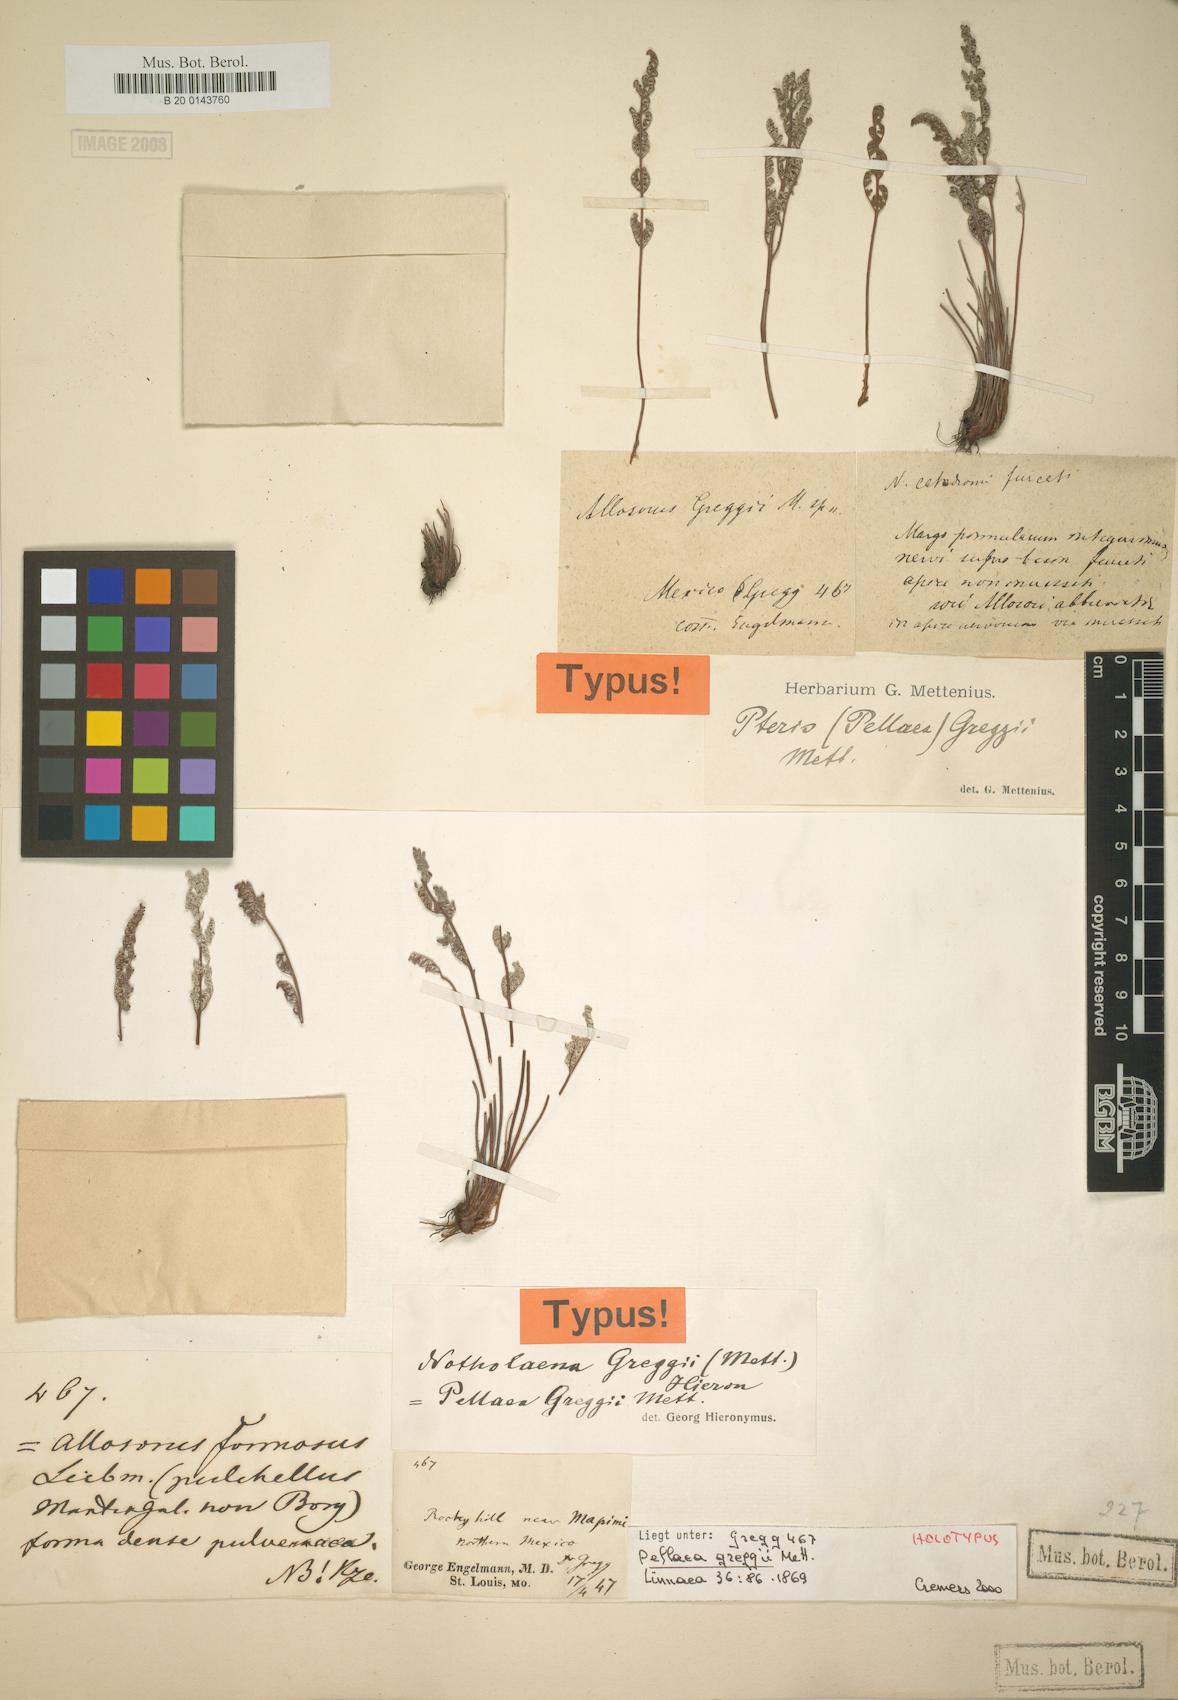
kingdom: Plantae
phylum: Tracheophyta
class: Polypodiopsida
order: Polypodiales
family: Pteridaceae
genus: Notholaena
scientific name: Notholaena greggii
